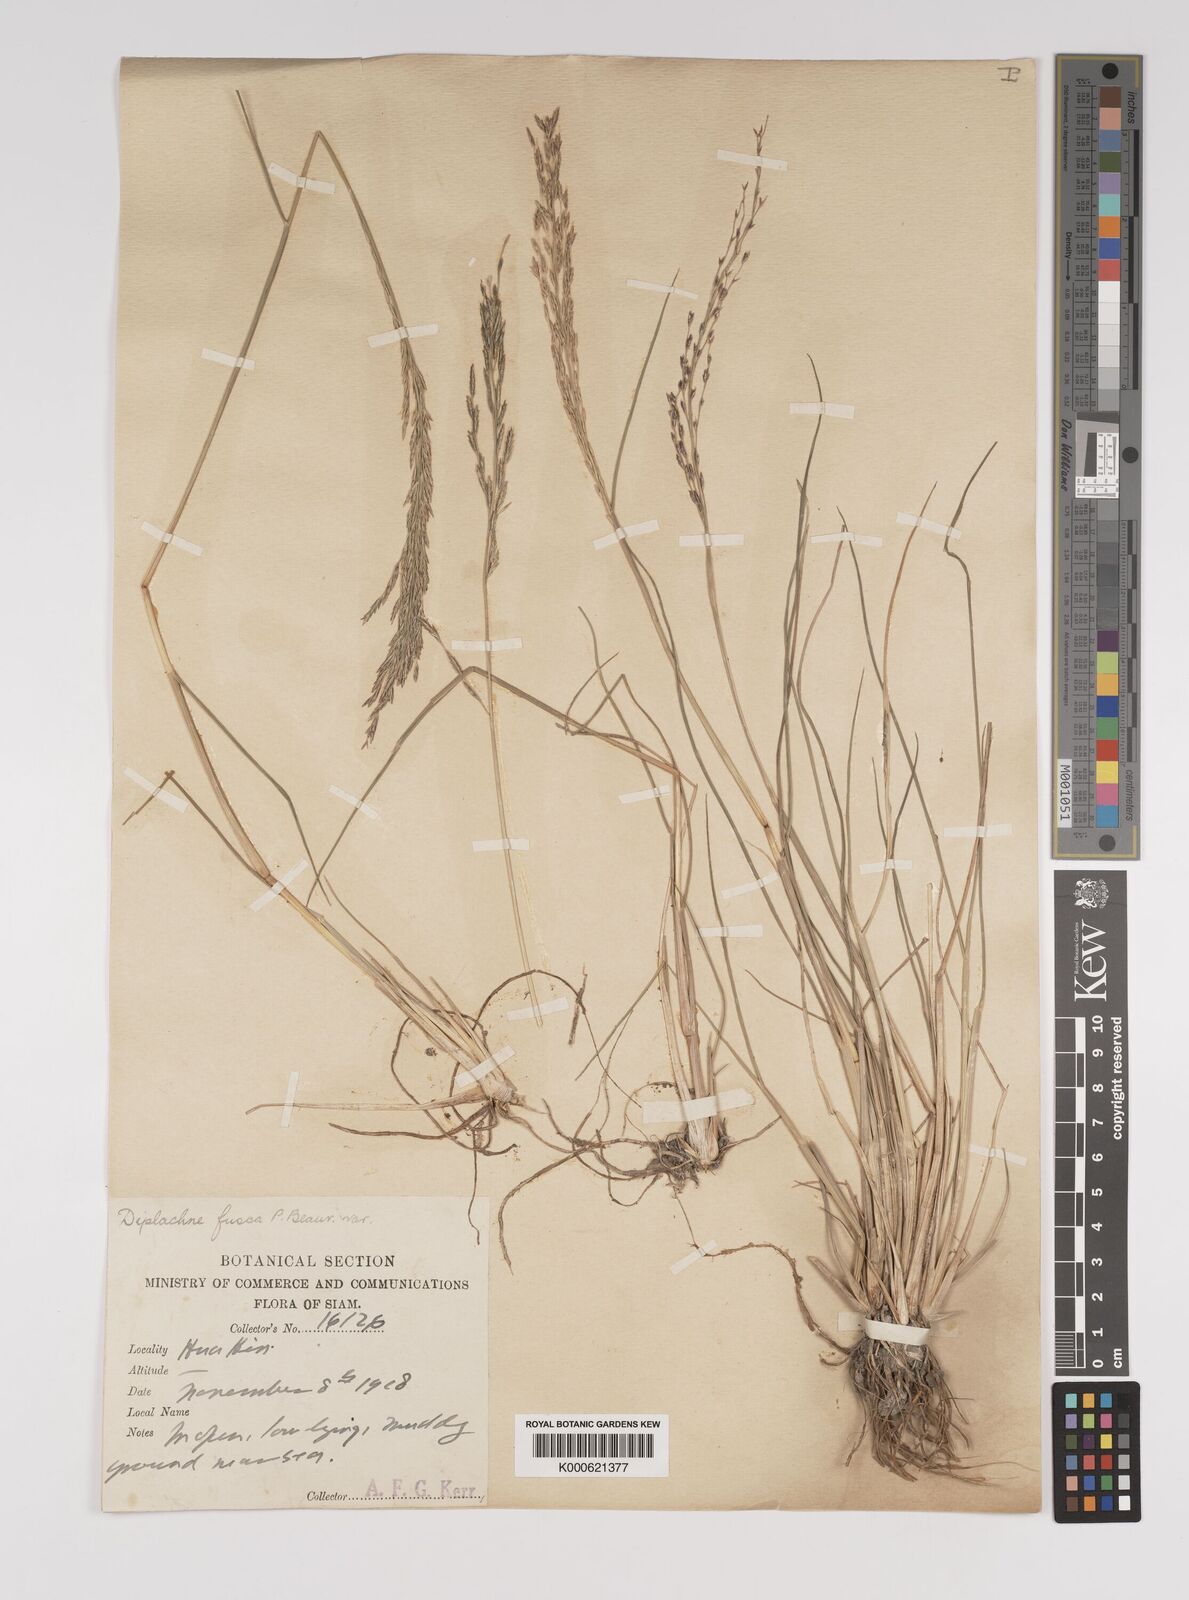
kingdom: Plantae
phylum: Tracheophyta
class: Liliopsida
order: Poales
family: Poaceae
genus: Diplachne
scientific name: Diplachne fusca
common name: Brown beetle grass
